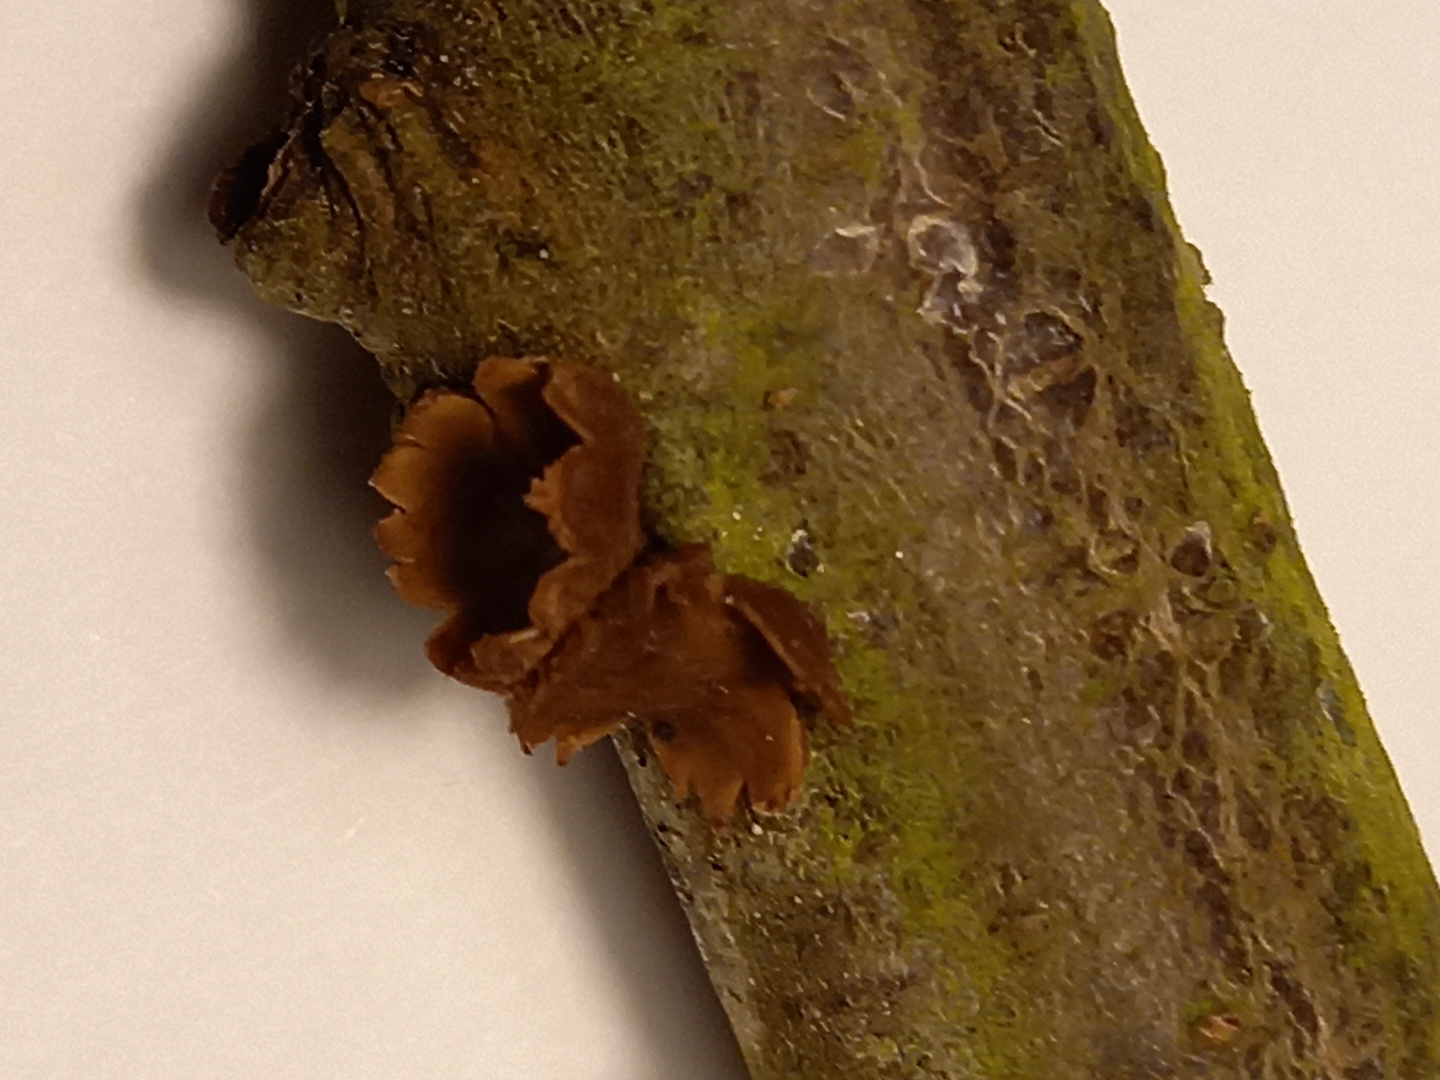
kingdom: Fungi
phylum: Ascomycota
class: Leotiomycetes
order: Helotiales
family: Cenangiaceae
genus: Encoelia
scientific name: Encoelia furfuracea
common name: hassel-læderskive
